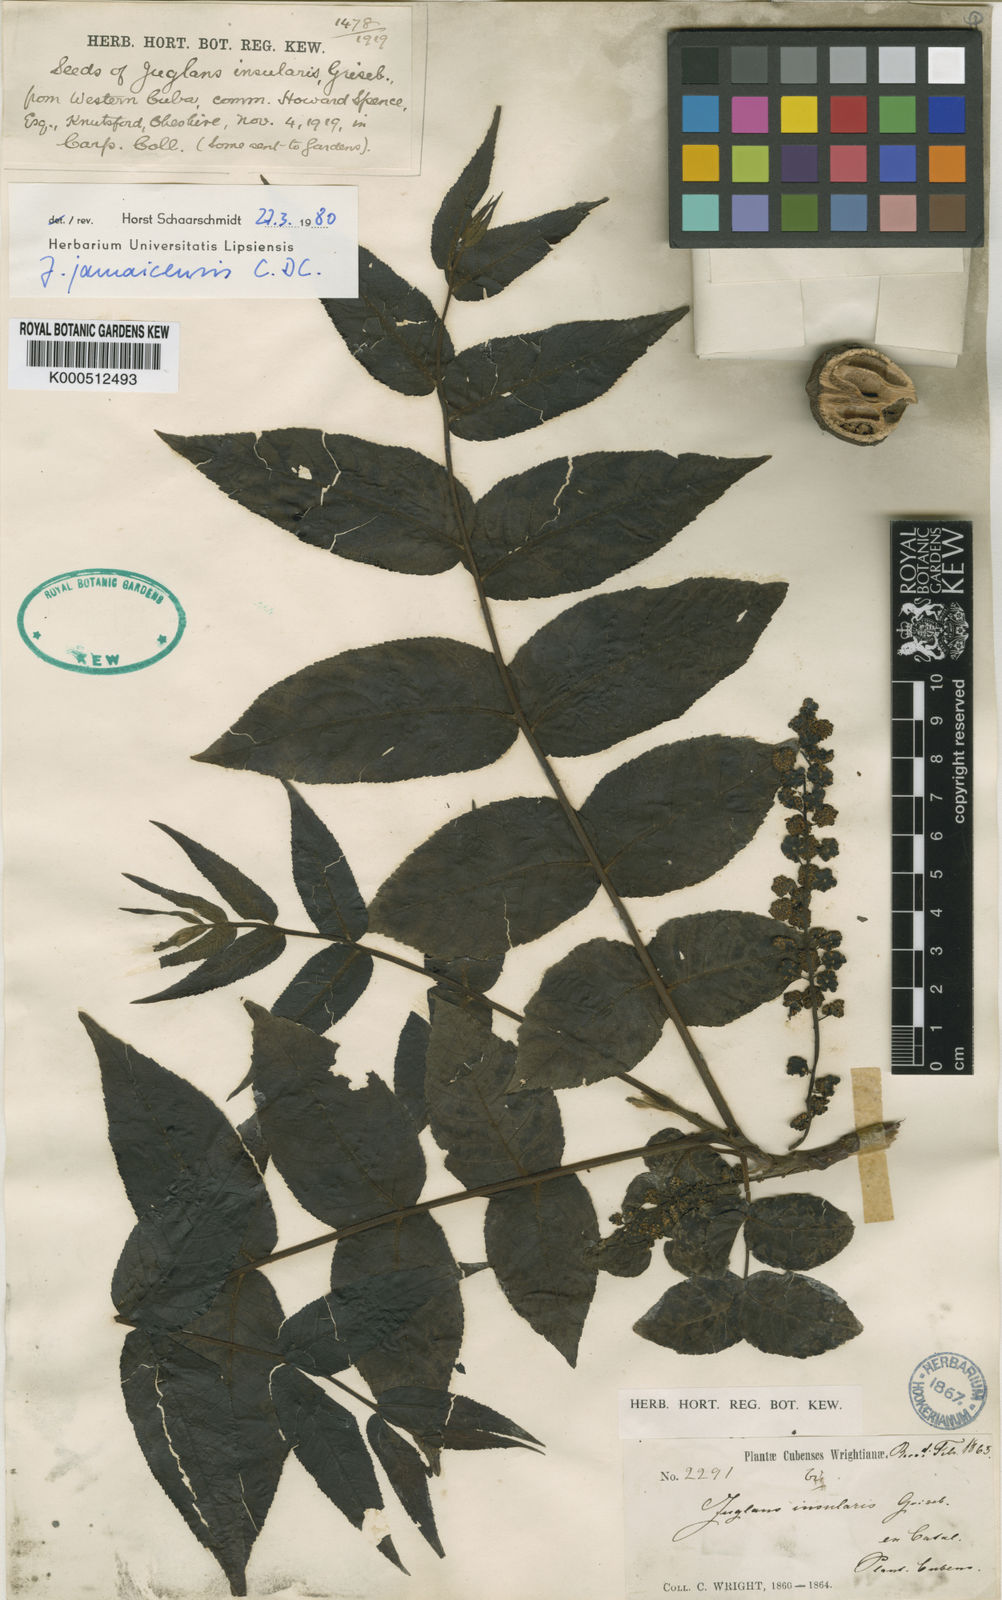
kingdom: Plantae
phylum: Tracheophyta
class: Magnoliopsida
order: Fagales
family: Juglandaceae
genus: Juglans
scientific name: Juglans jamaicensis
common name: West indian walnut
